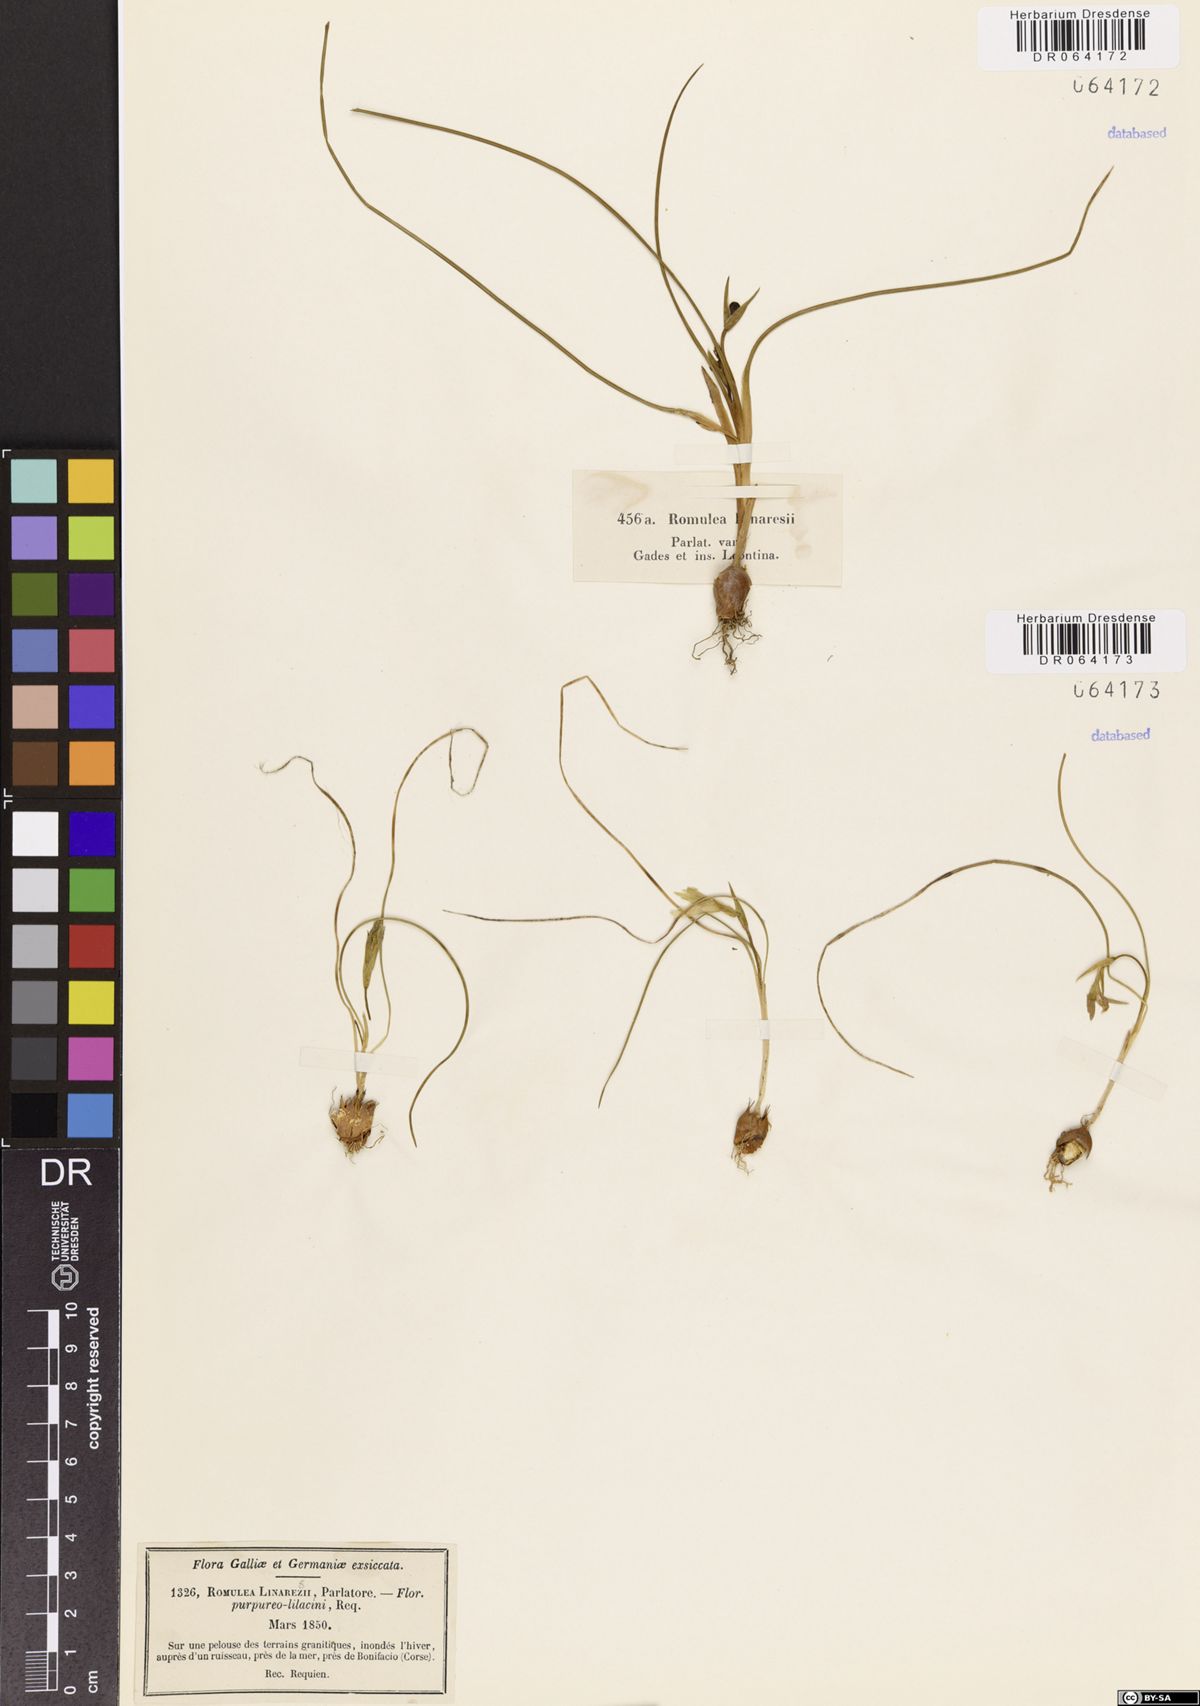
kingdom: Plantae
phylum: Tracheophyta
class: Liliopsida
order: Asparagales
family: Iridaceae
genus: Romulea
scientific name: Romulea linaresii
